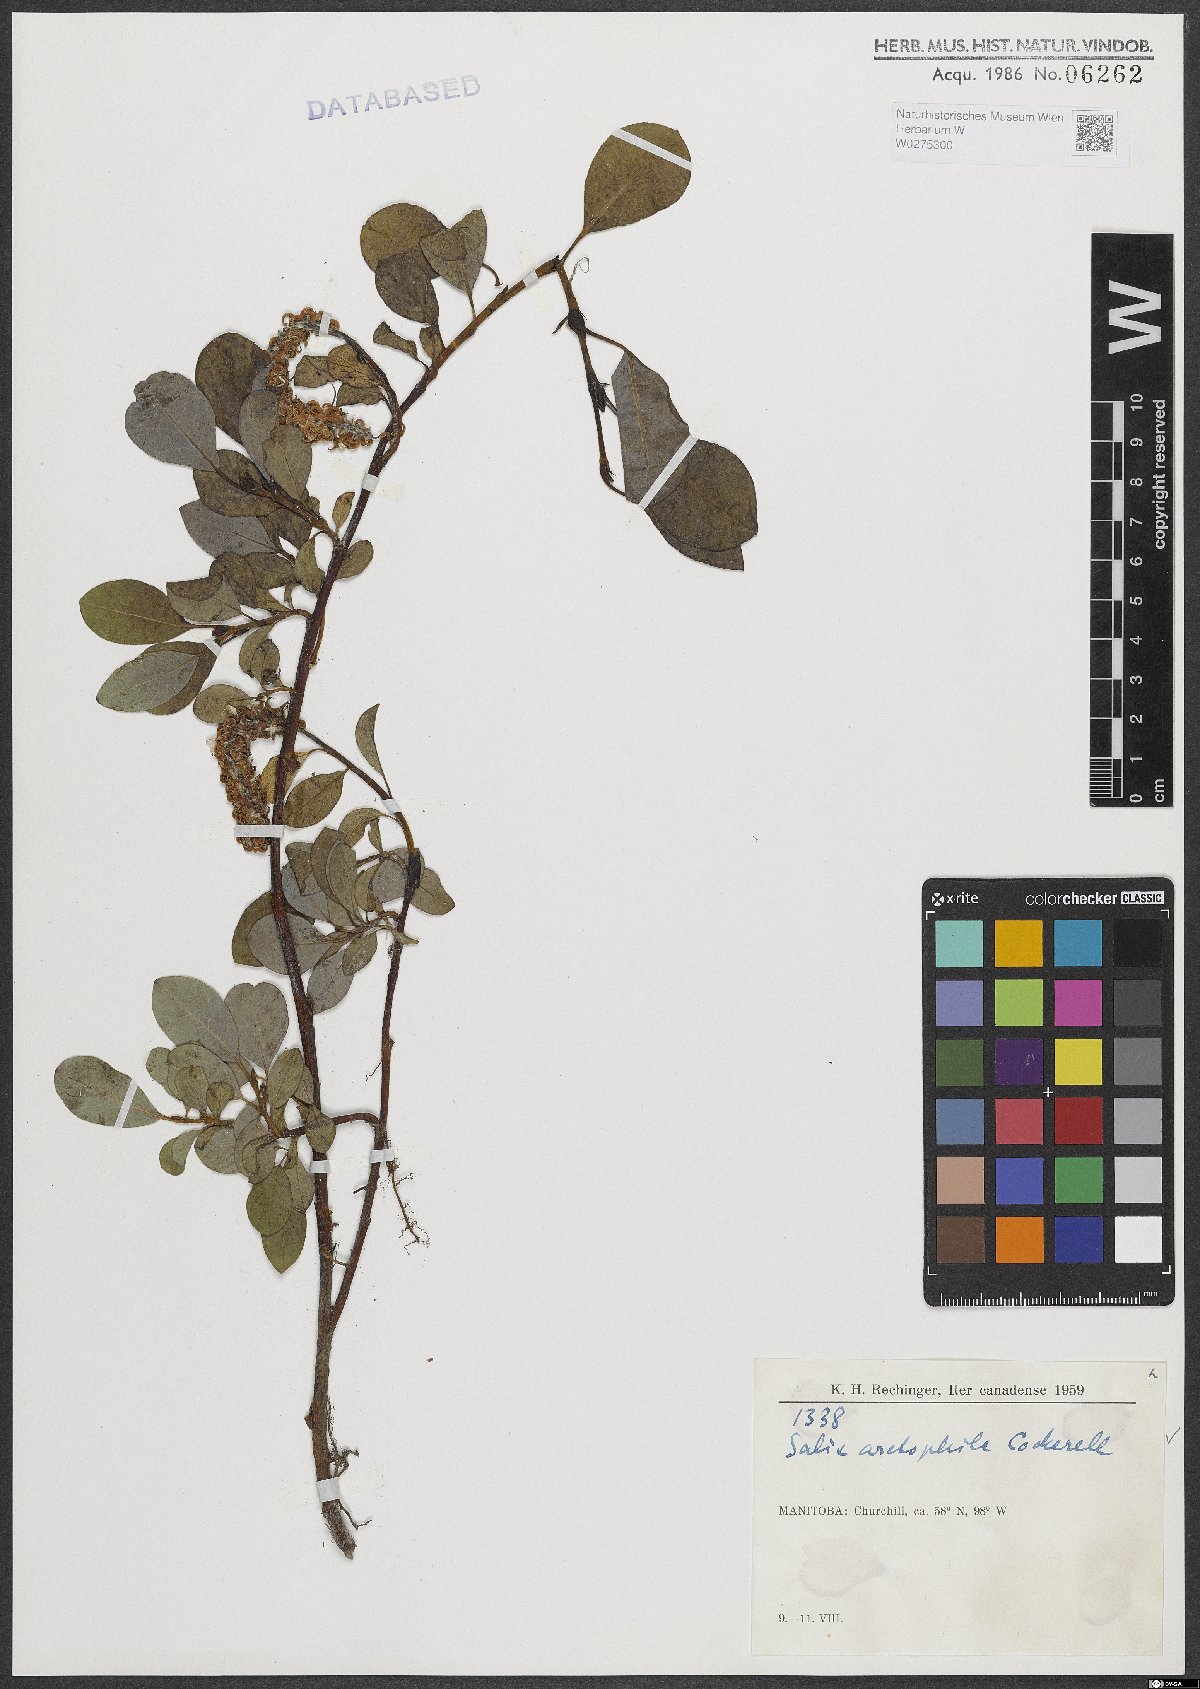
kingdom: Plantae
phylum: Tracheophyta
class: Magnoliopsida
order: Malpighiales
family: Salicaceae
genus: Salix
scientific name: Salix arctophila
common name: Greenland willow
